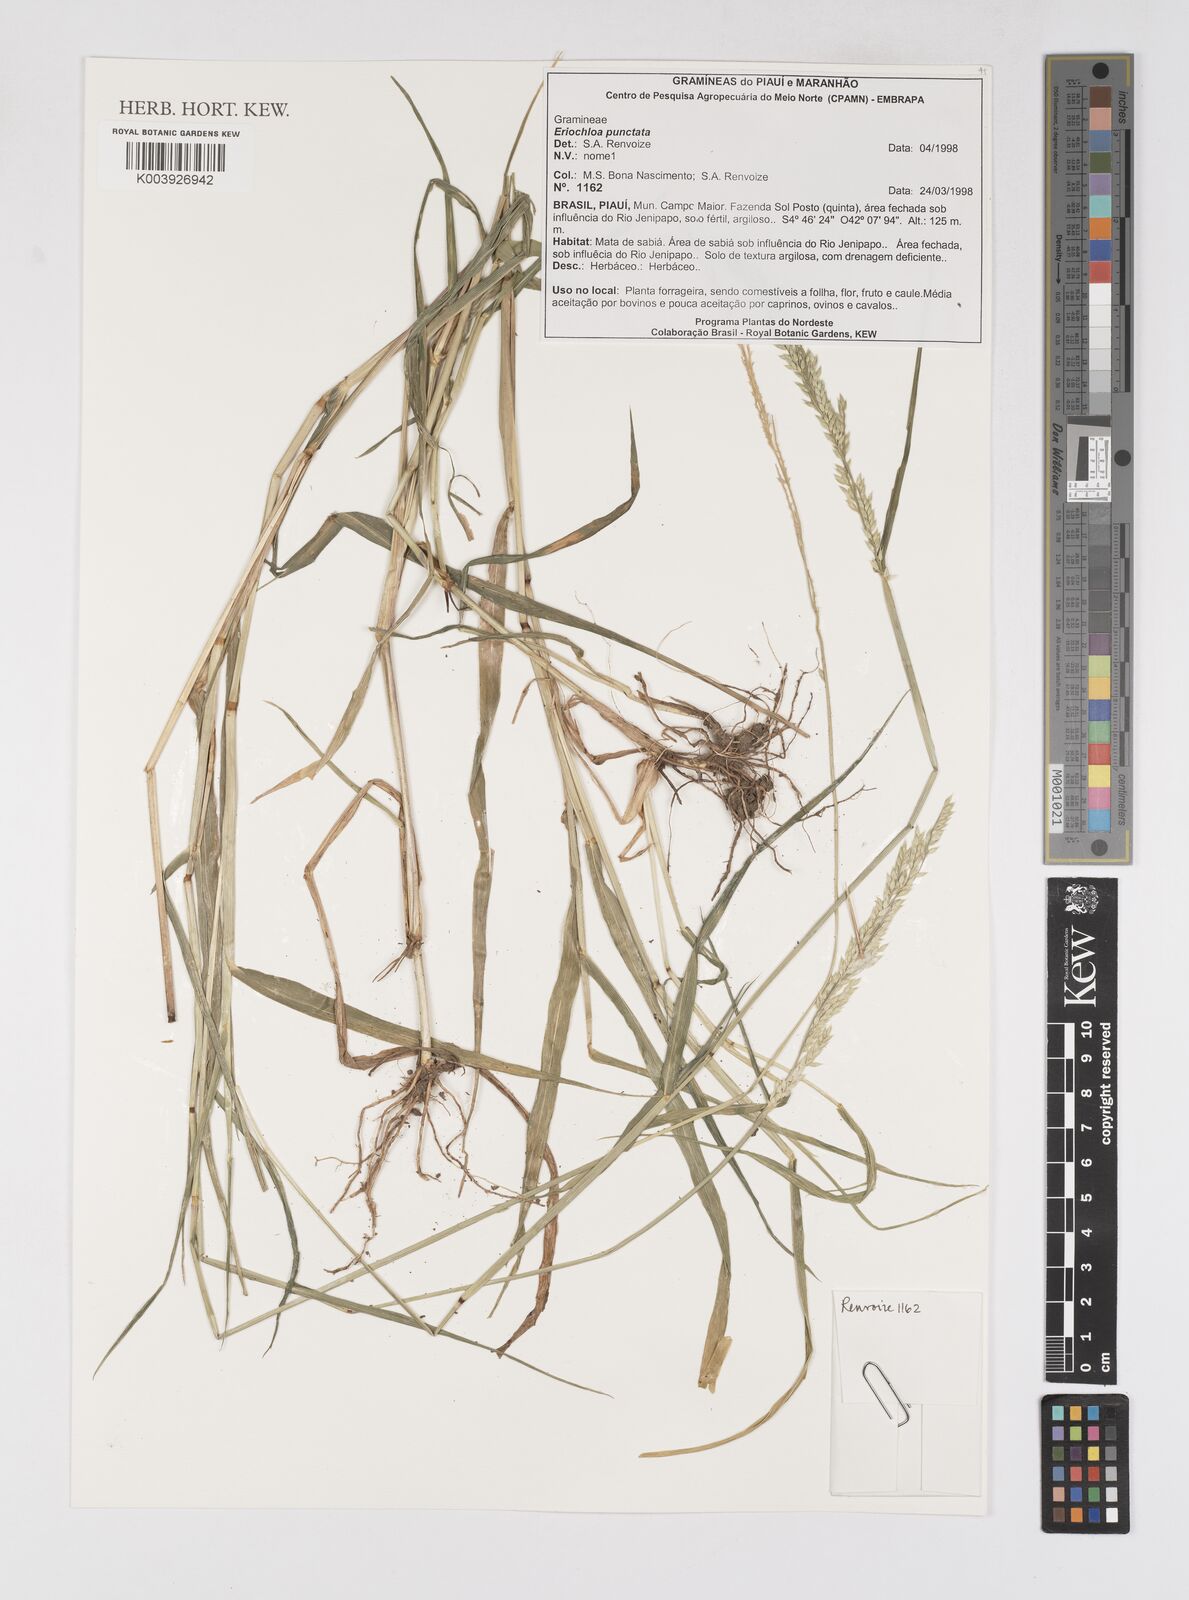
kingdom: Plantae
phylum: Tracheophyta
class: Liliopsida
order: Poales
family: Poaceae
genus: Eriochloa
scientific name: Eriochloa punctata
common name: Louisiana cupgrass
